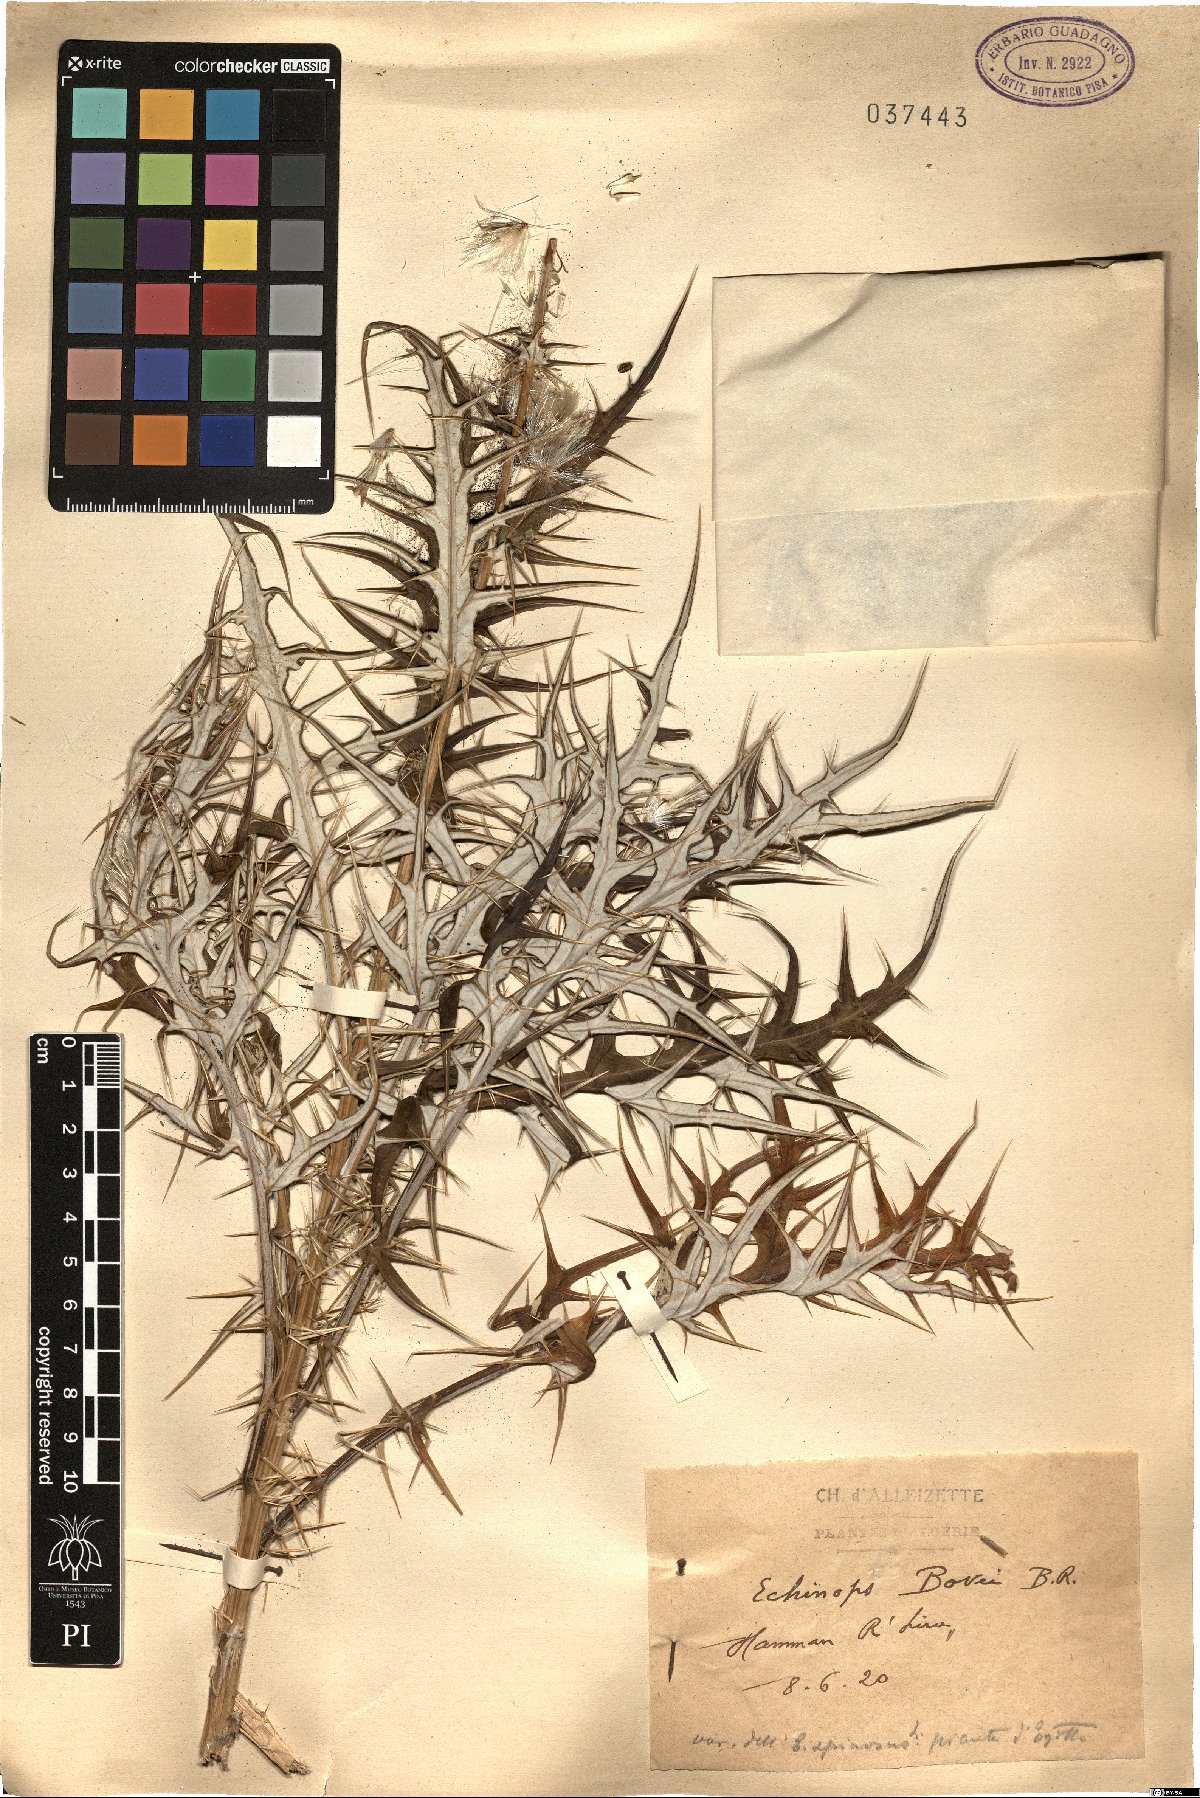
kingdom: Plantae
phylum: Tracheophyta
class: Magnoliopsida
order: Asterales
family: Asteraceae
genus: Echinops
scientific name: Echinops bovei
